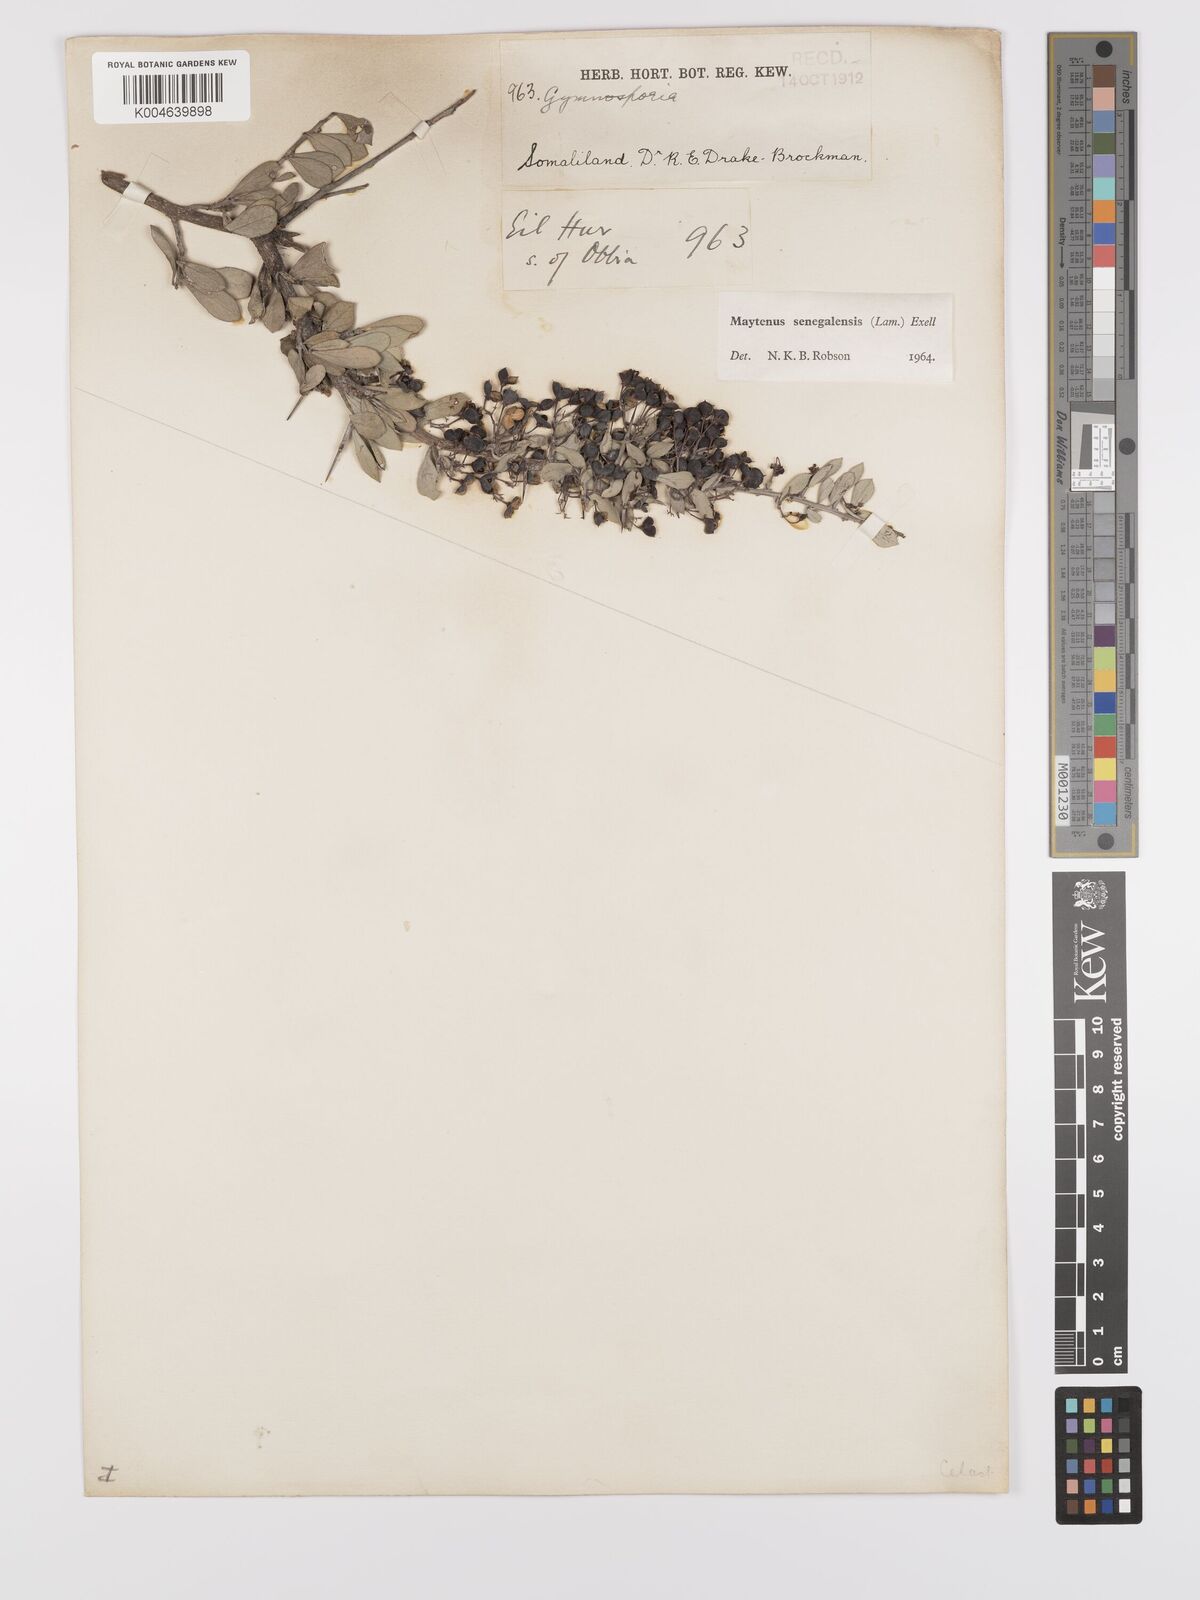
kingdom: Plantae
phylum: Tracheophyta
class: Magnoliopsida
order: Celastrales
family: Celastraceae
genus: Gymnosporia
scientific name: Gymnosporia senegalensis
